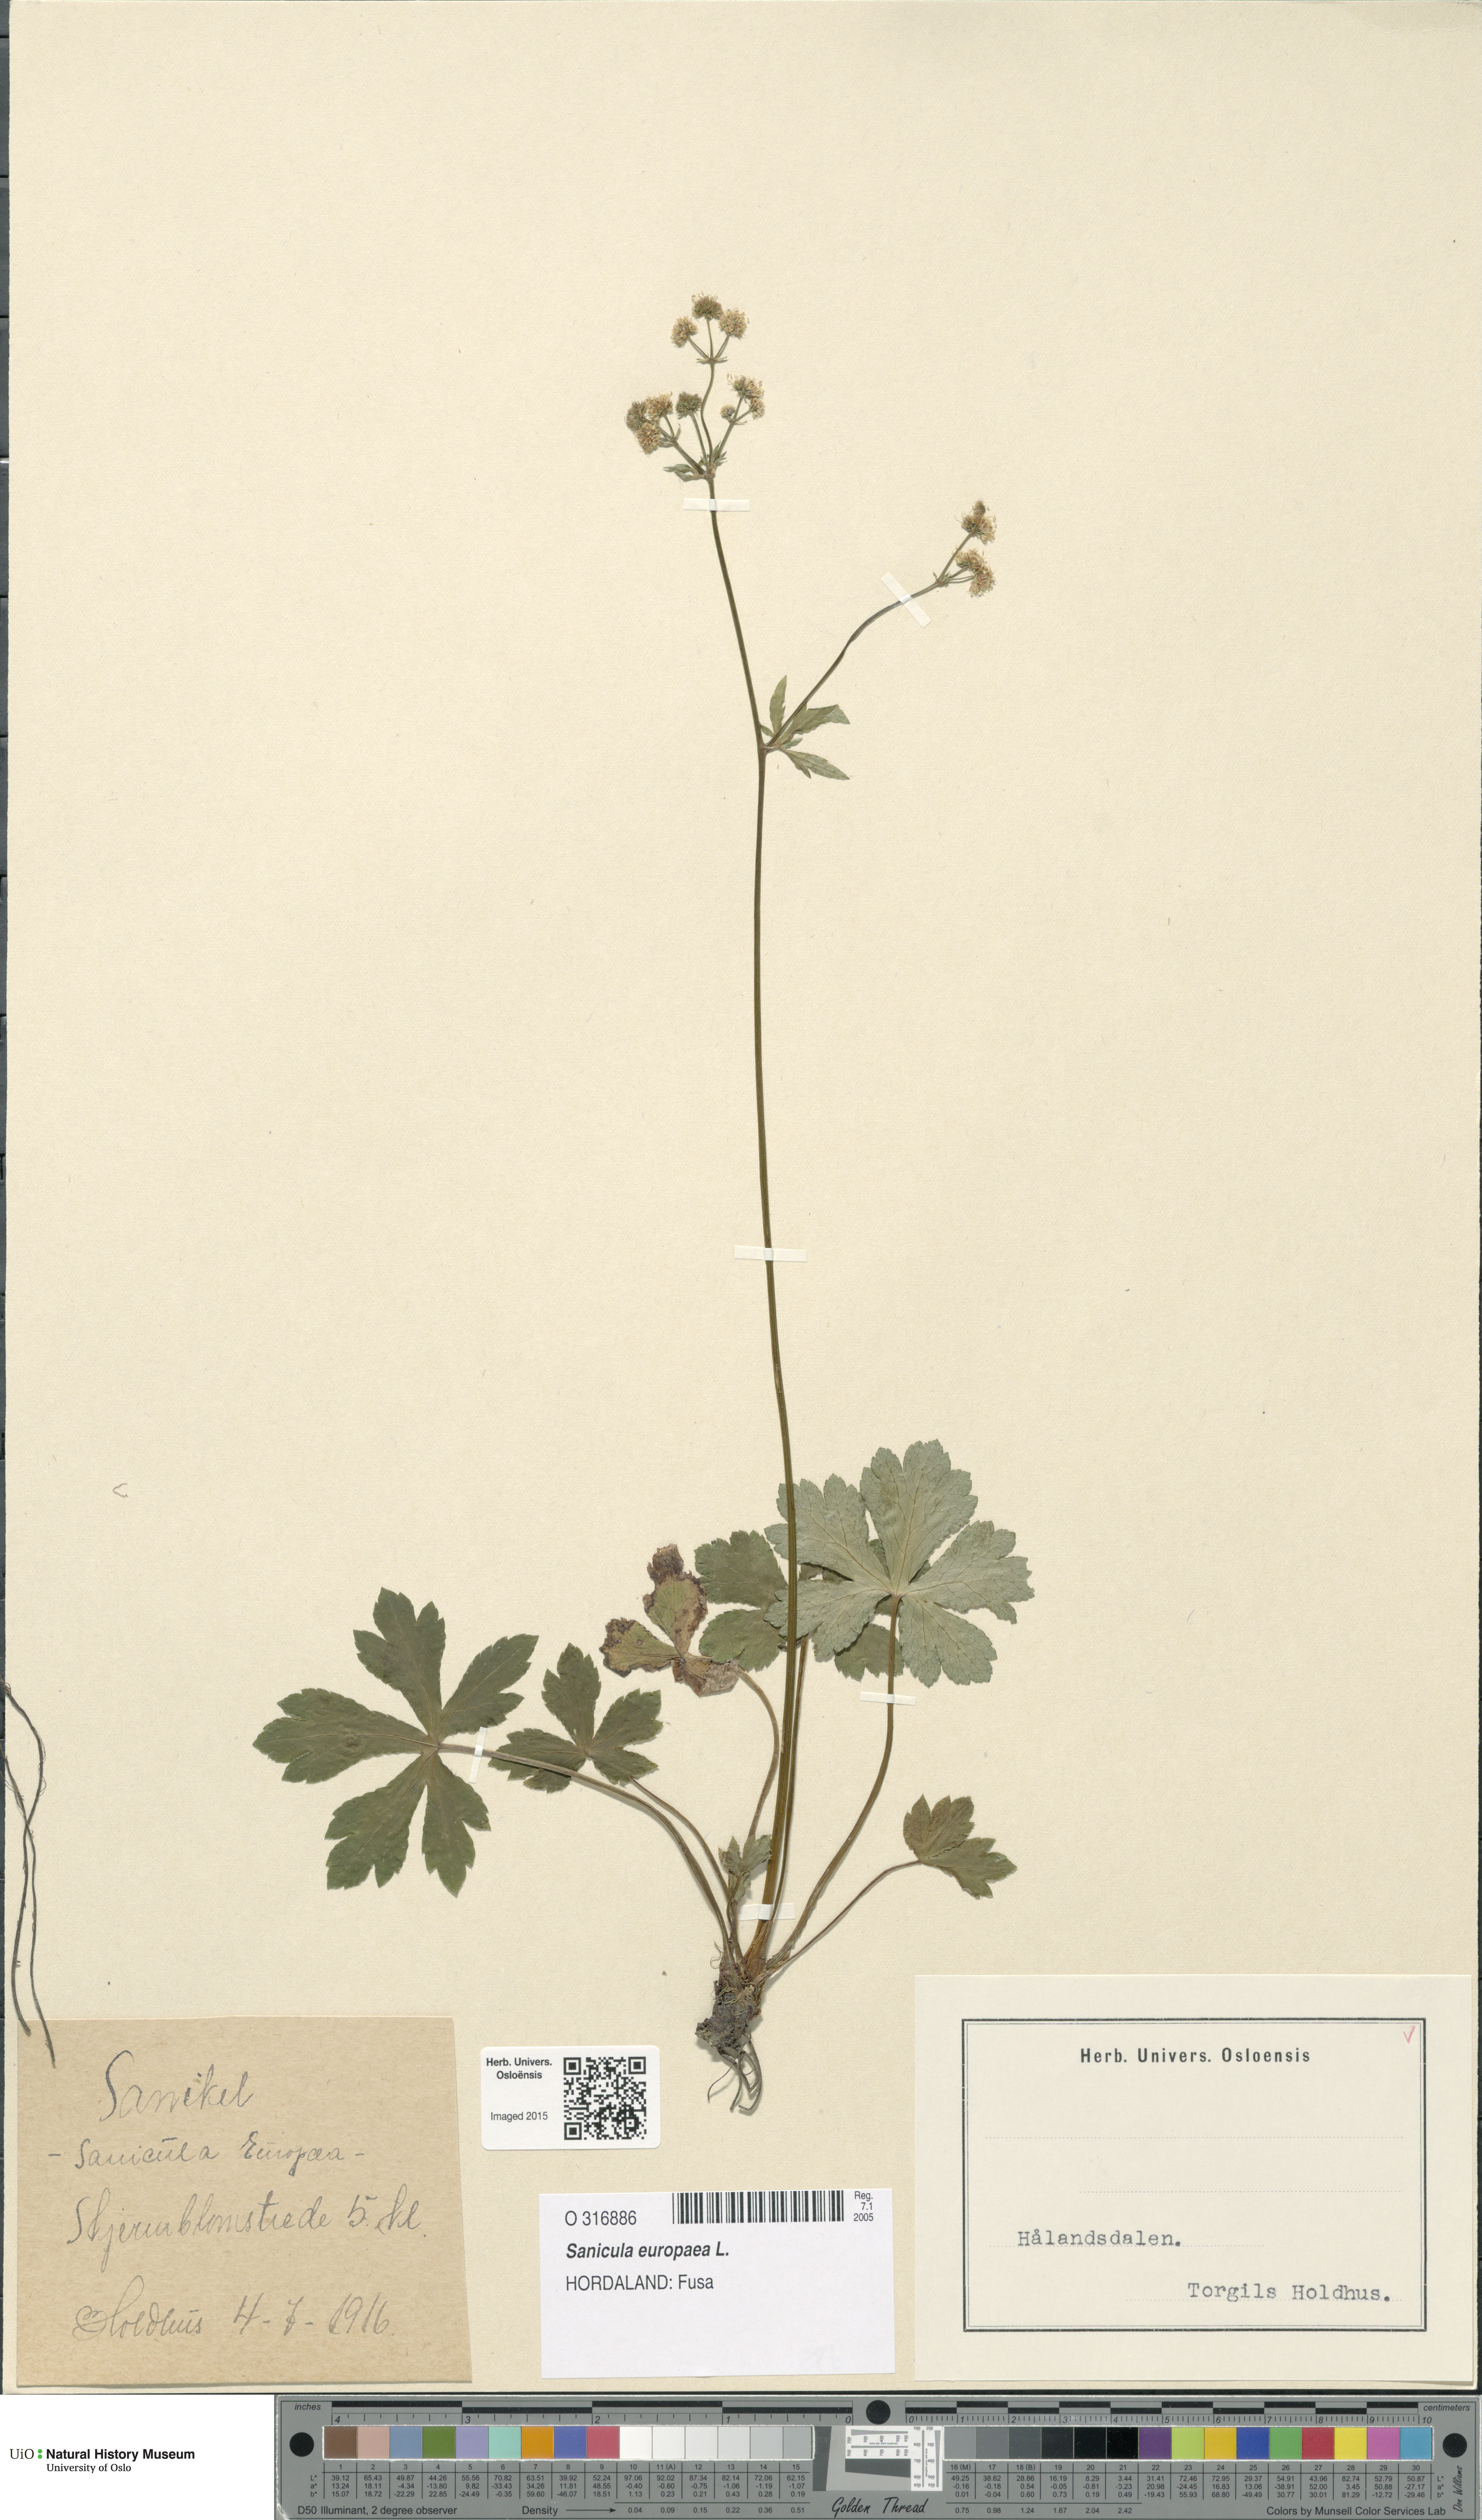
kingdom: Plantae
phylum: Tracheophyta
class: Magnoliopsida
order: Apiales
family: Apiaceae
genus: Sanicula
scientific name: Sanicula europaea
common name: Sanicle
